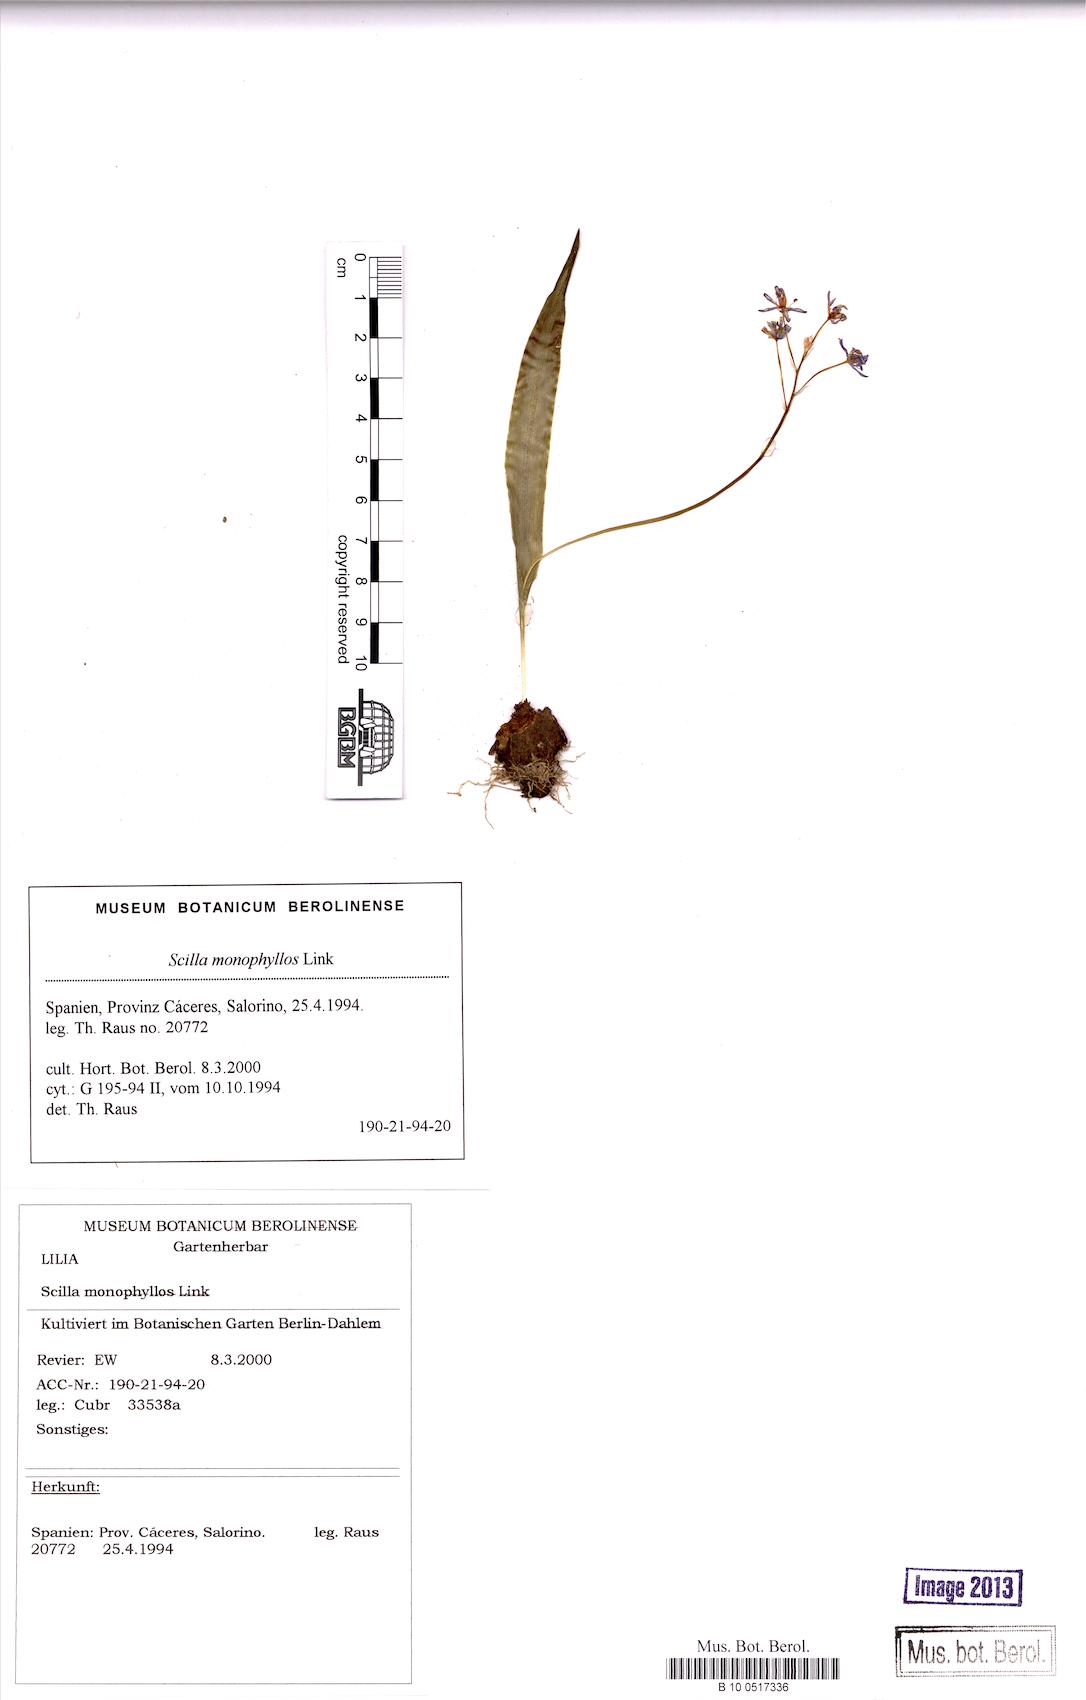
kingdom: Plantae
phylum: Tracheophyta
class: Liliopsida
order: Asparagales
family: Asparagaceae
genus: Scilla
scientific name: Scilla monophyllos
